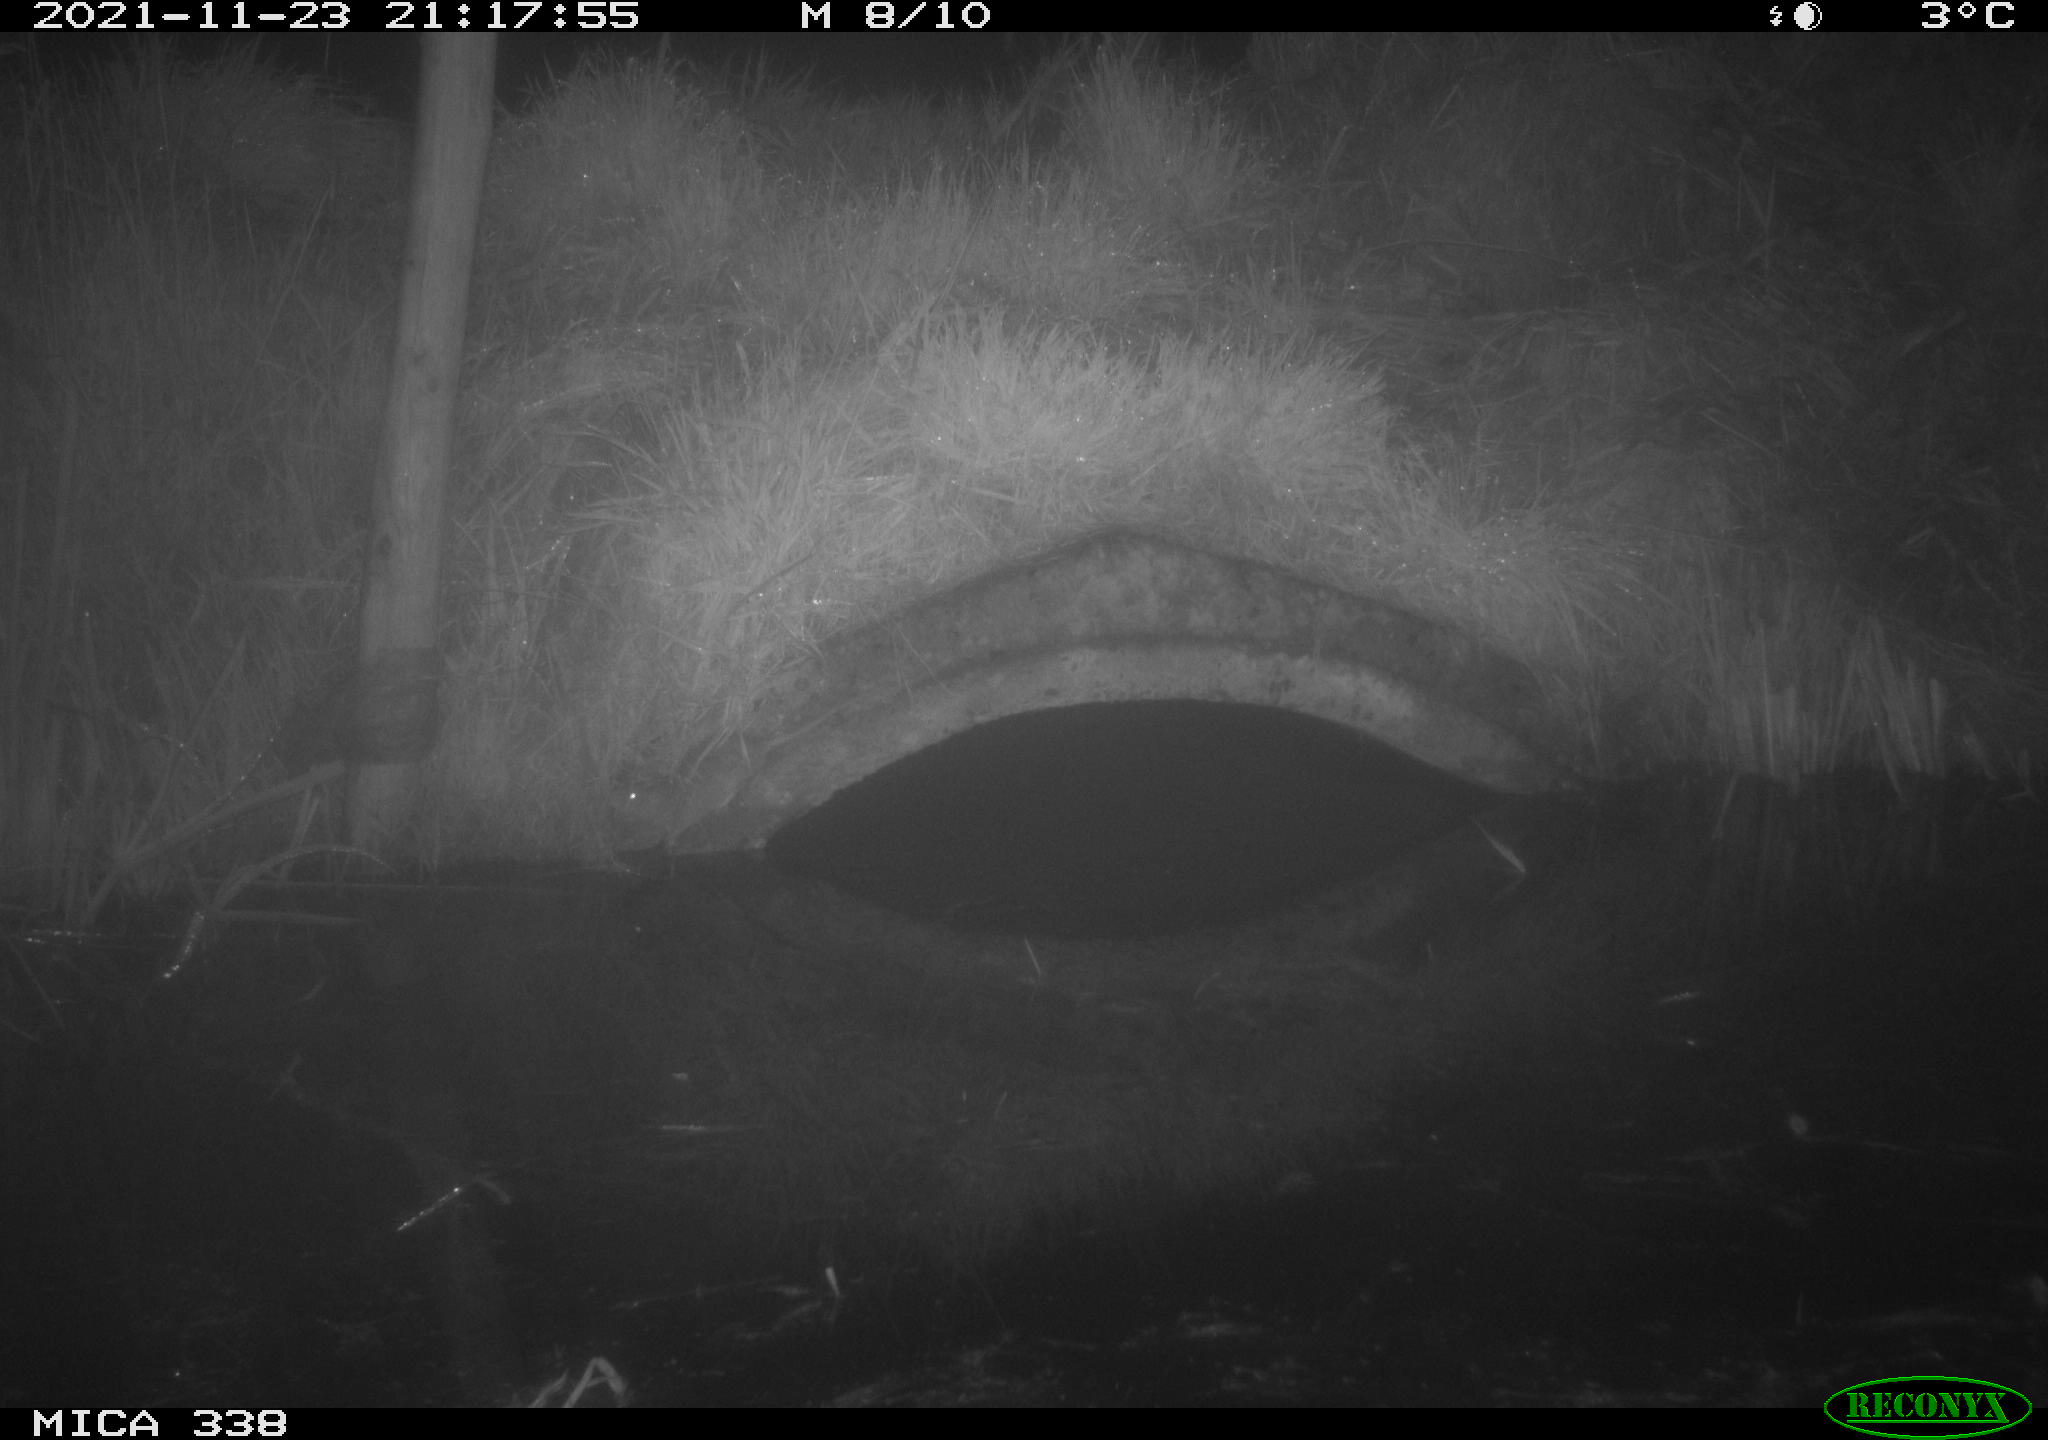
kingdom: Animalia
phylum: Chordata
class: Mammalia
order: Rodentia
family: Muridae
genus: Rattus
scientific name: Rattus norvegicus
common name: Brown rat
